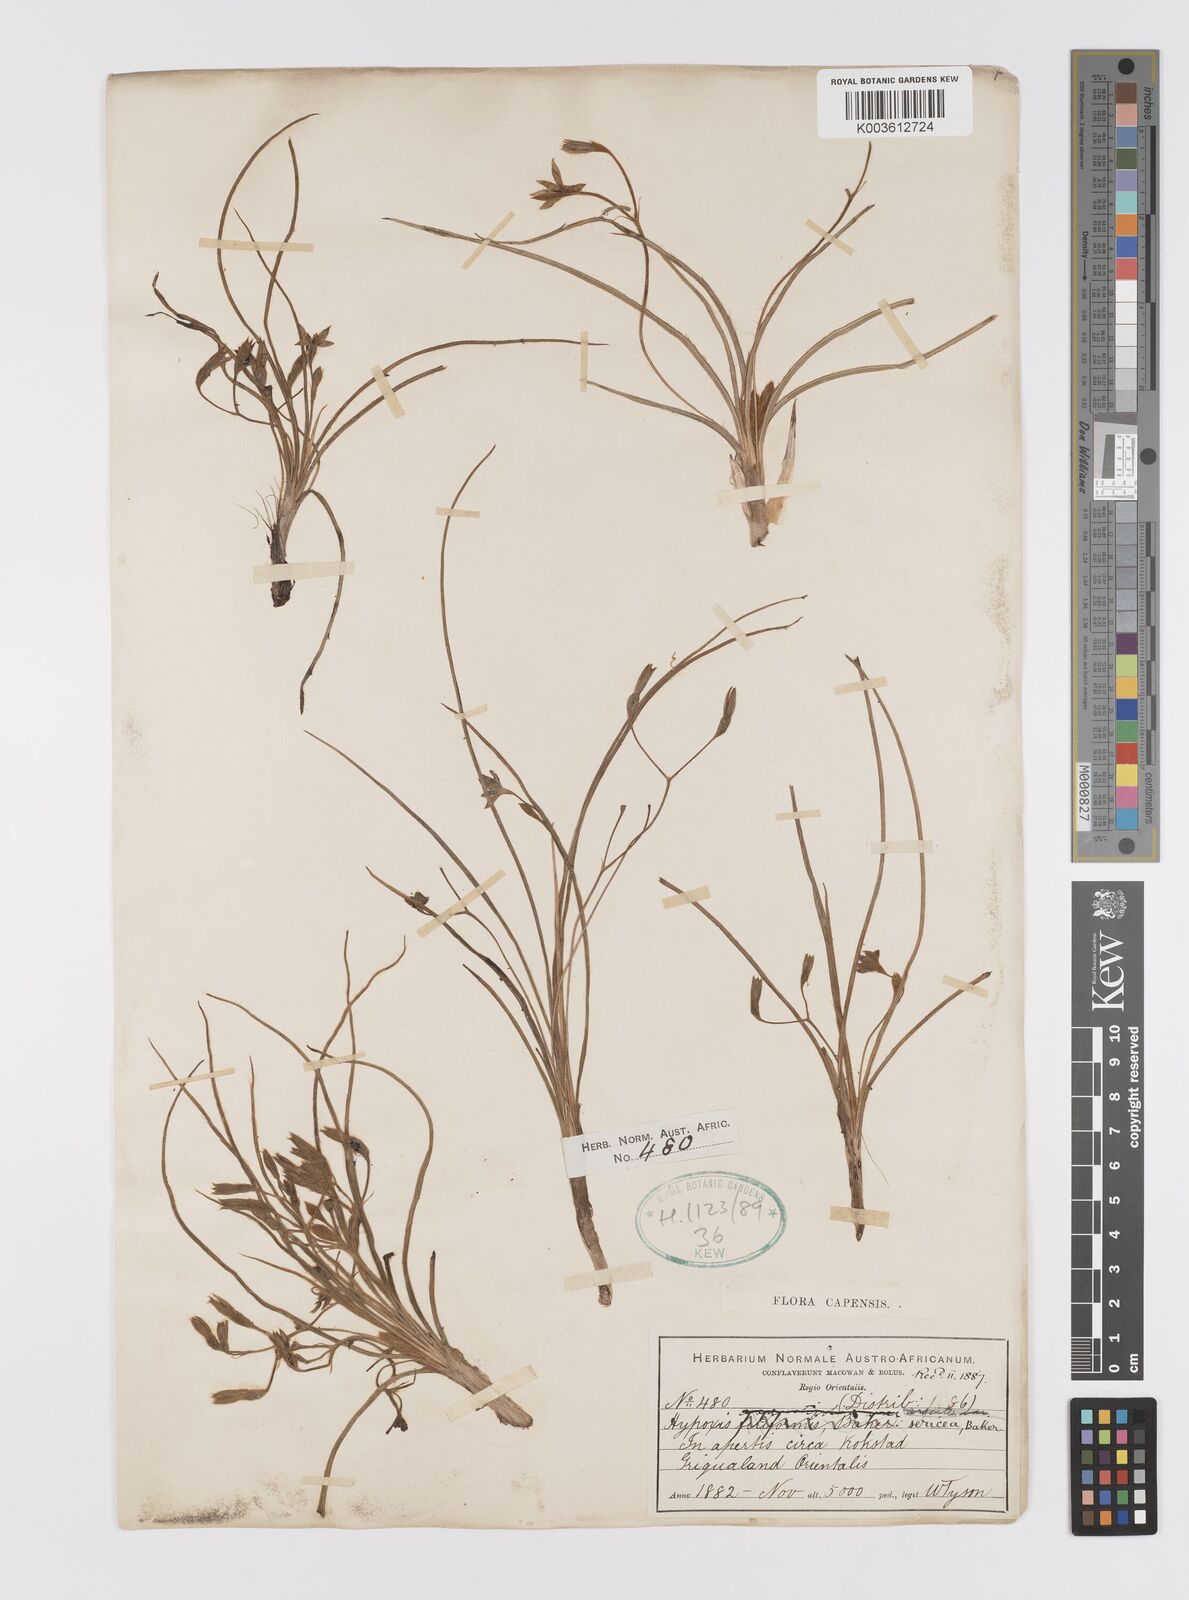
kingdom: Plantae
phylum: Tracheophyta
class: Liliopsida
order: Asparagales
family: Hypoxidaceae
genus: Hypoxis
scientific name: Hypoxis gerrardii
